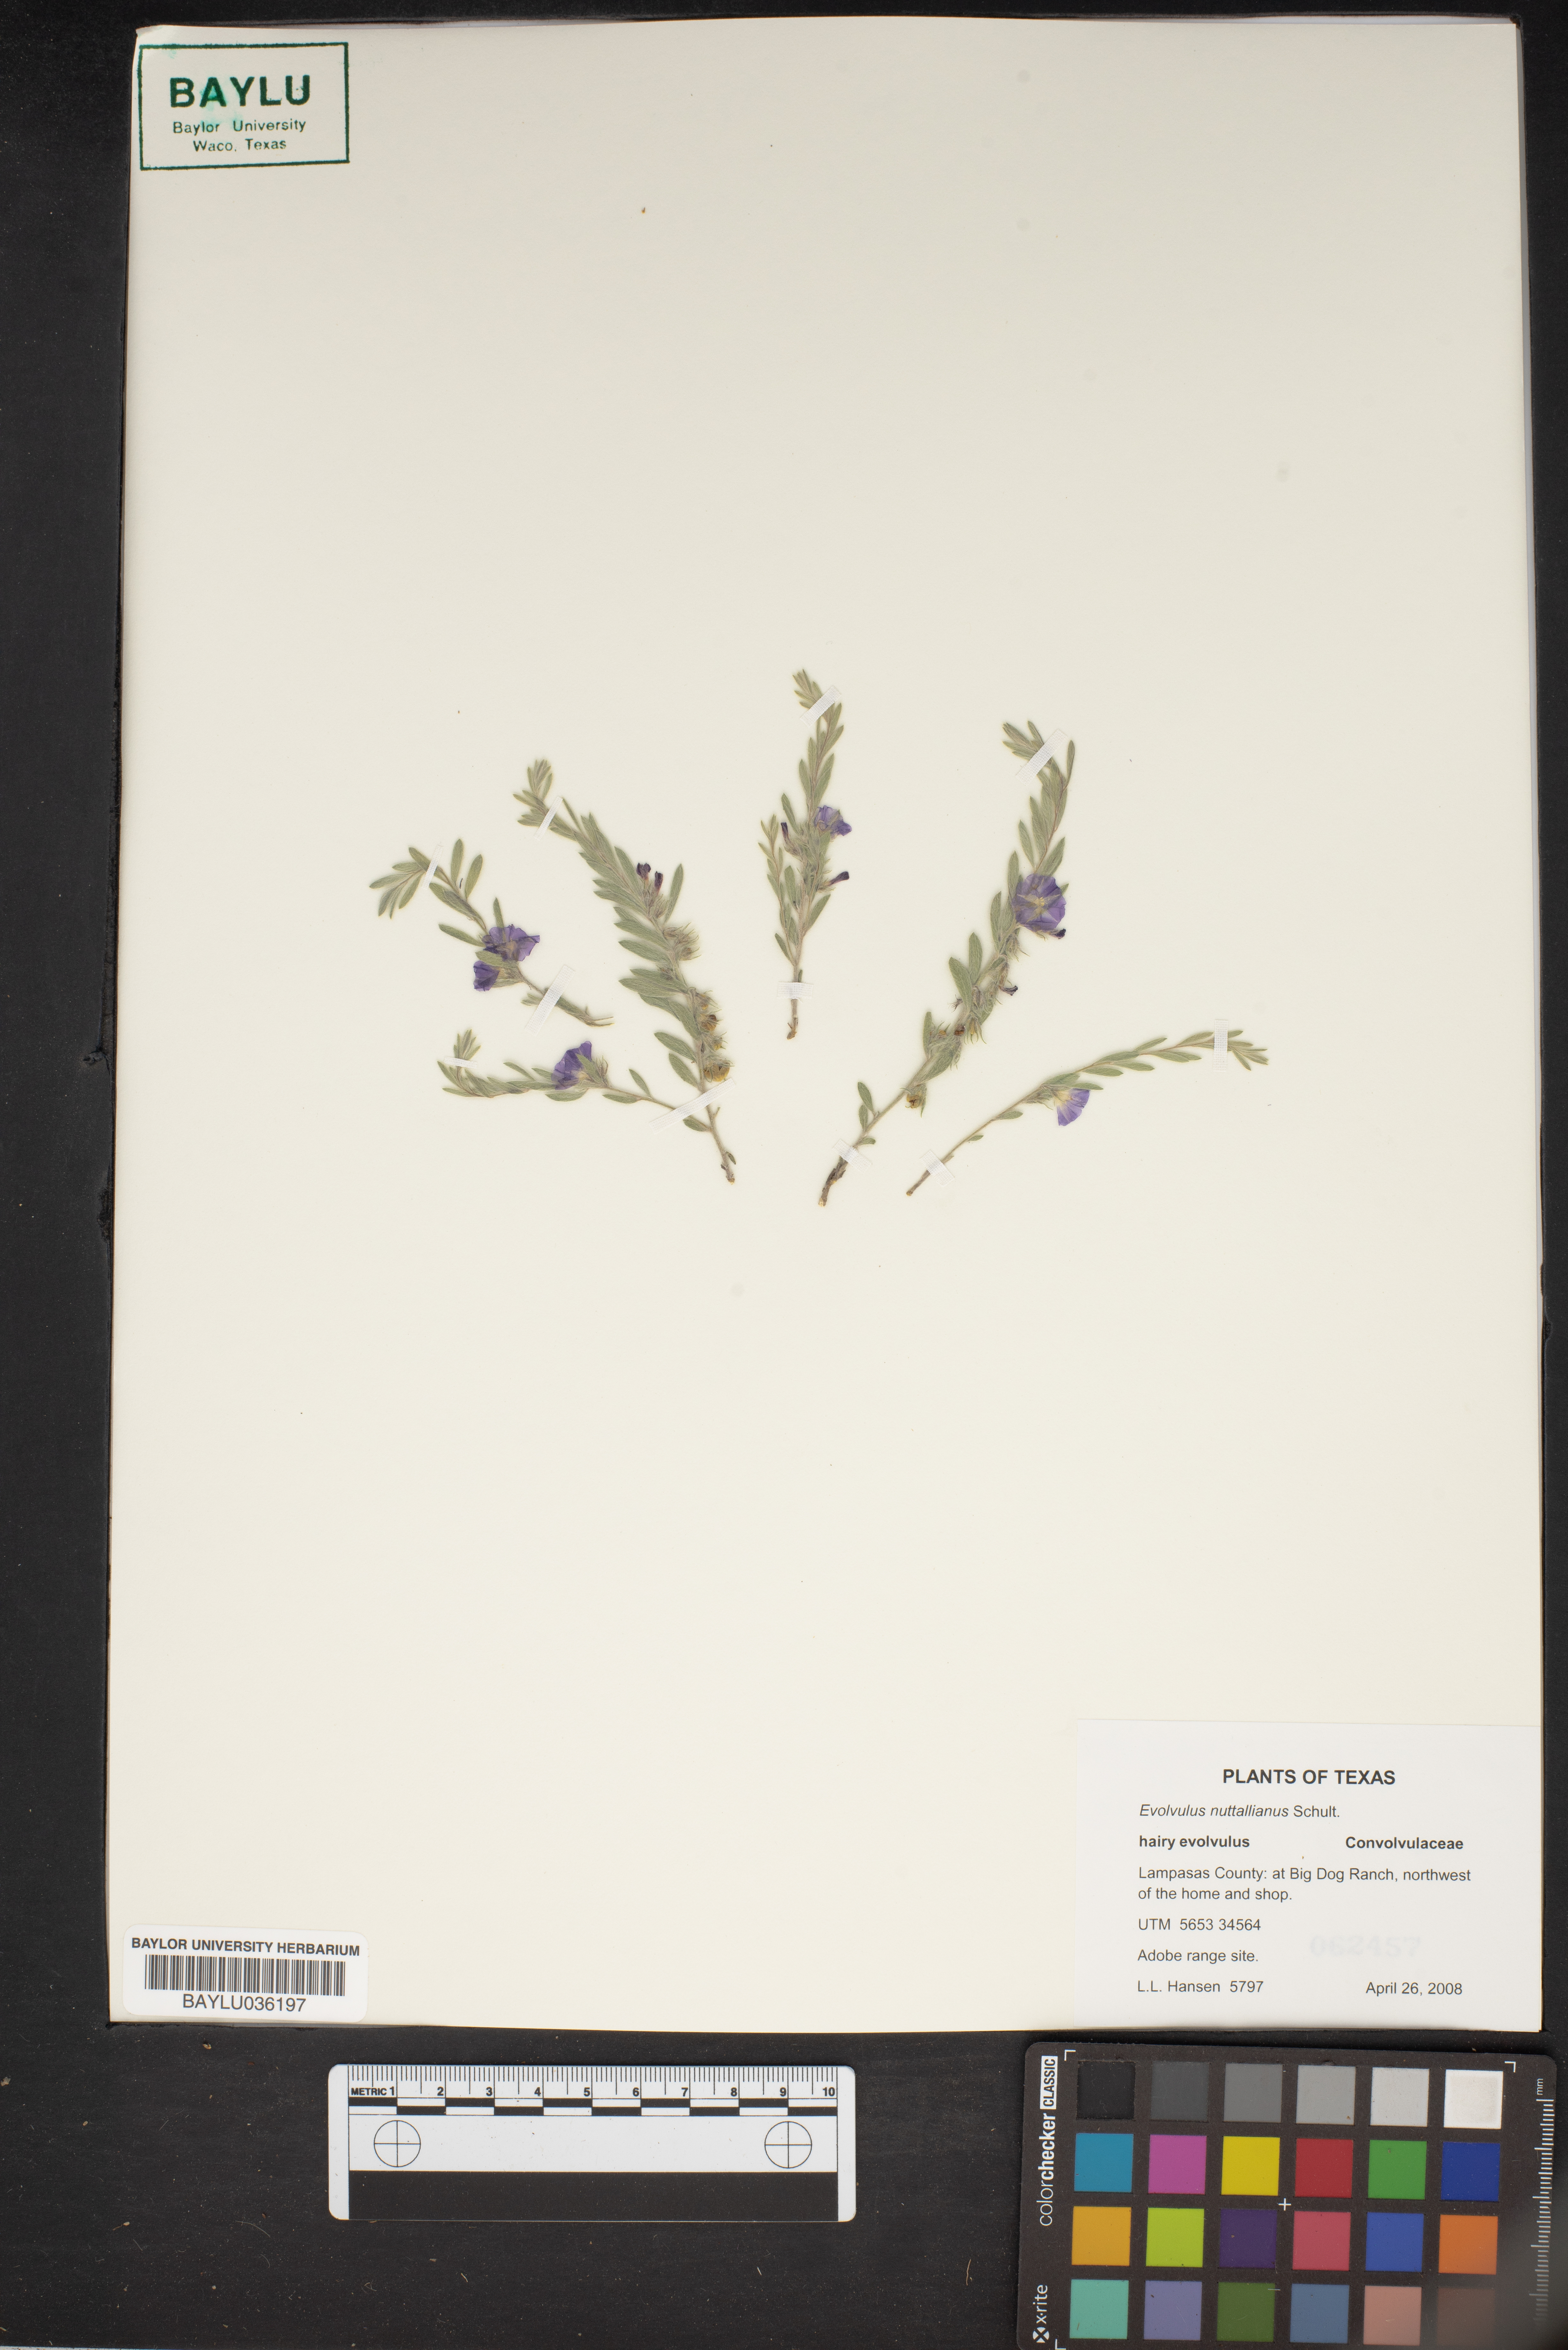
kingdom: Plantae
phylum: Tracheophyta
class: Magnoliopsida
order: Solanales
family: Convolvulaceae
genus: Evolvulus
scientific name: Evolvulus nuttallianus
